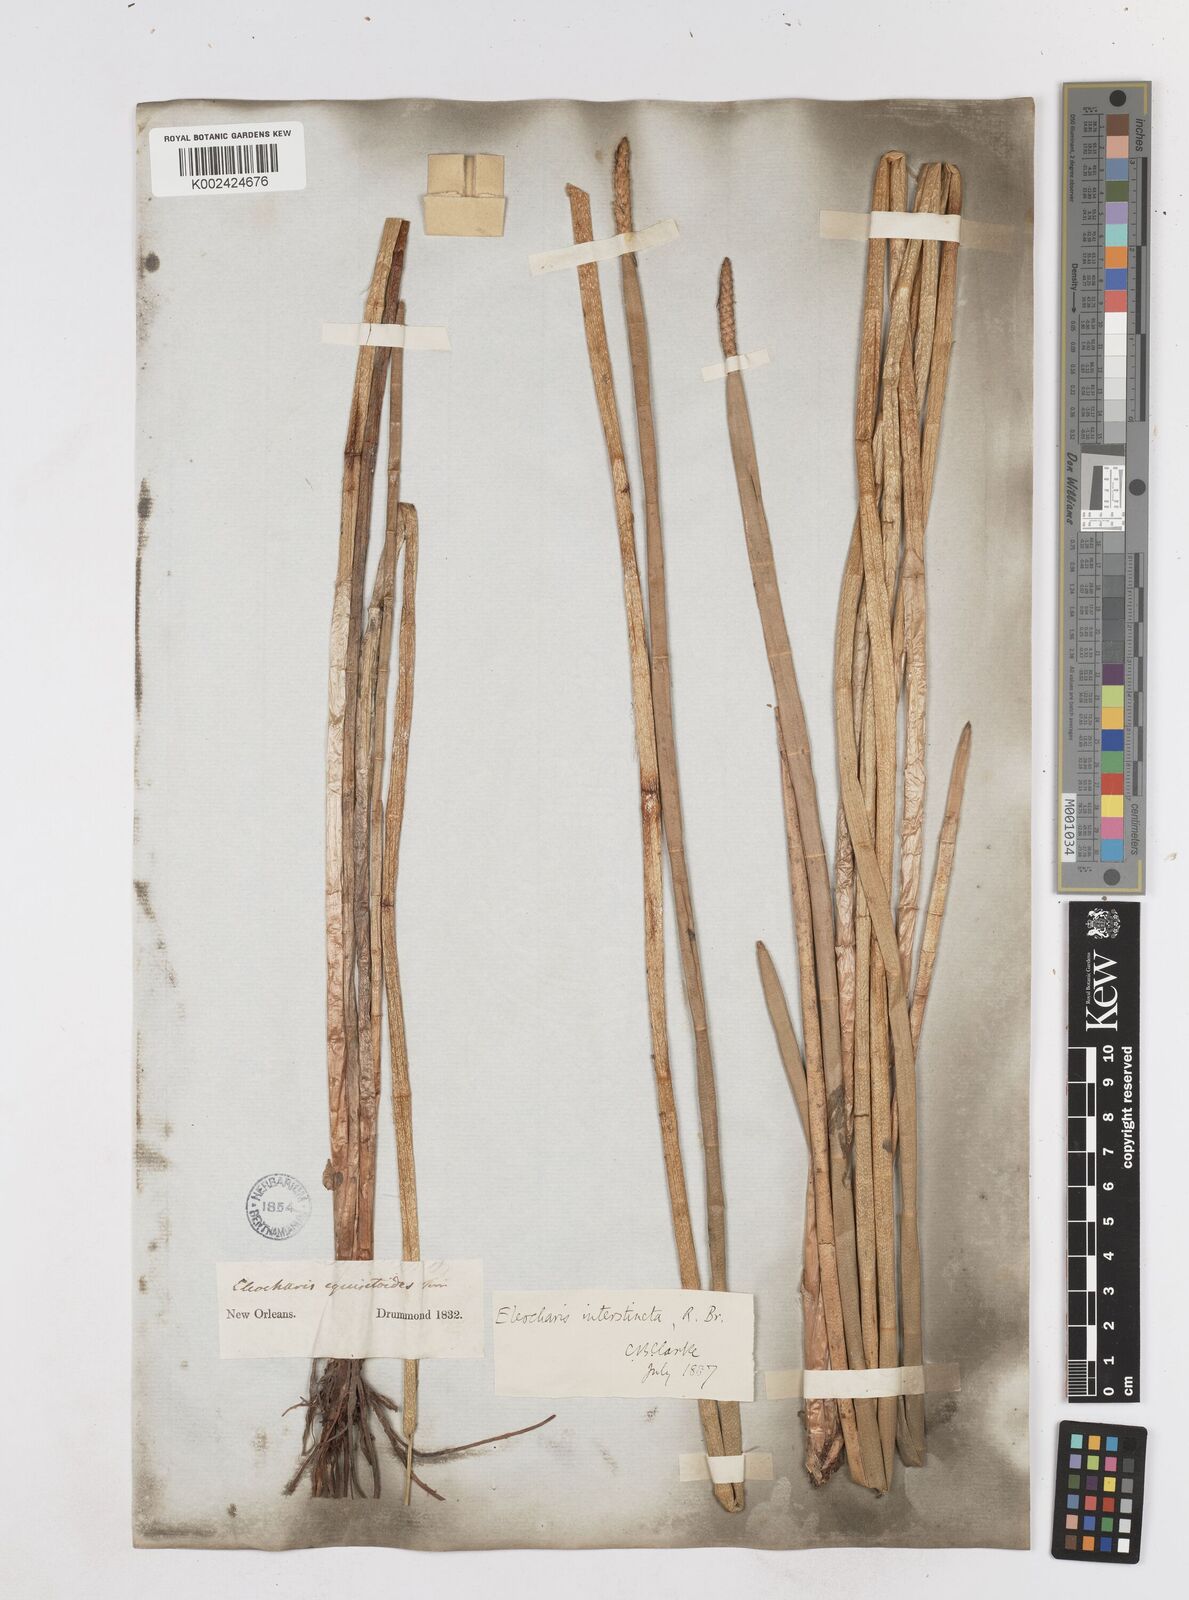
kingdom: Plantae
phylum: Tracheophyta
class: Liliopsida
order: Poales
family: Cyperaceae
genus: Eleocharis
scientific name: Eleocharis equisetoides
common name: Horsetail spike-rush
